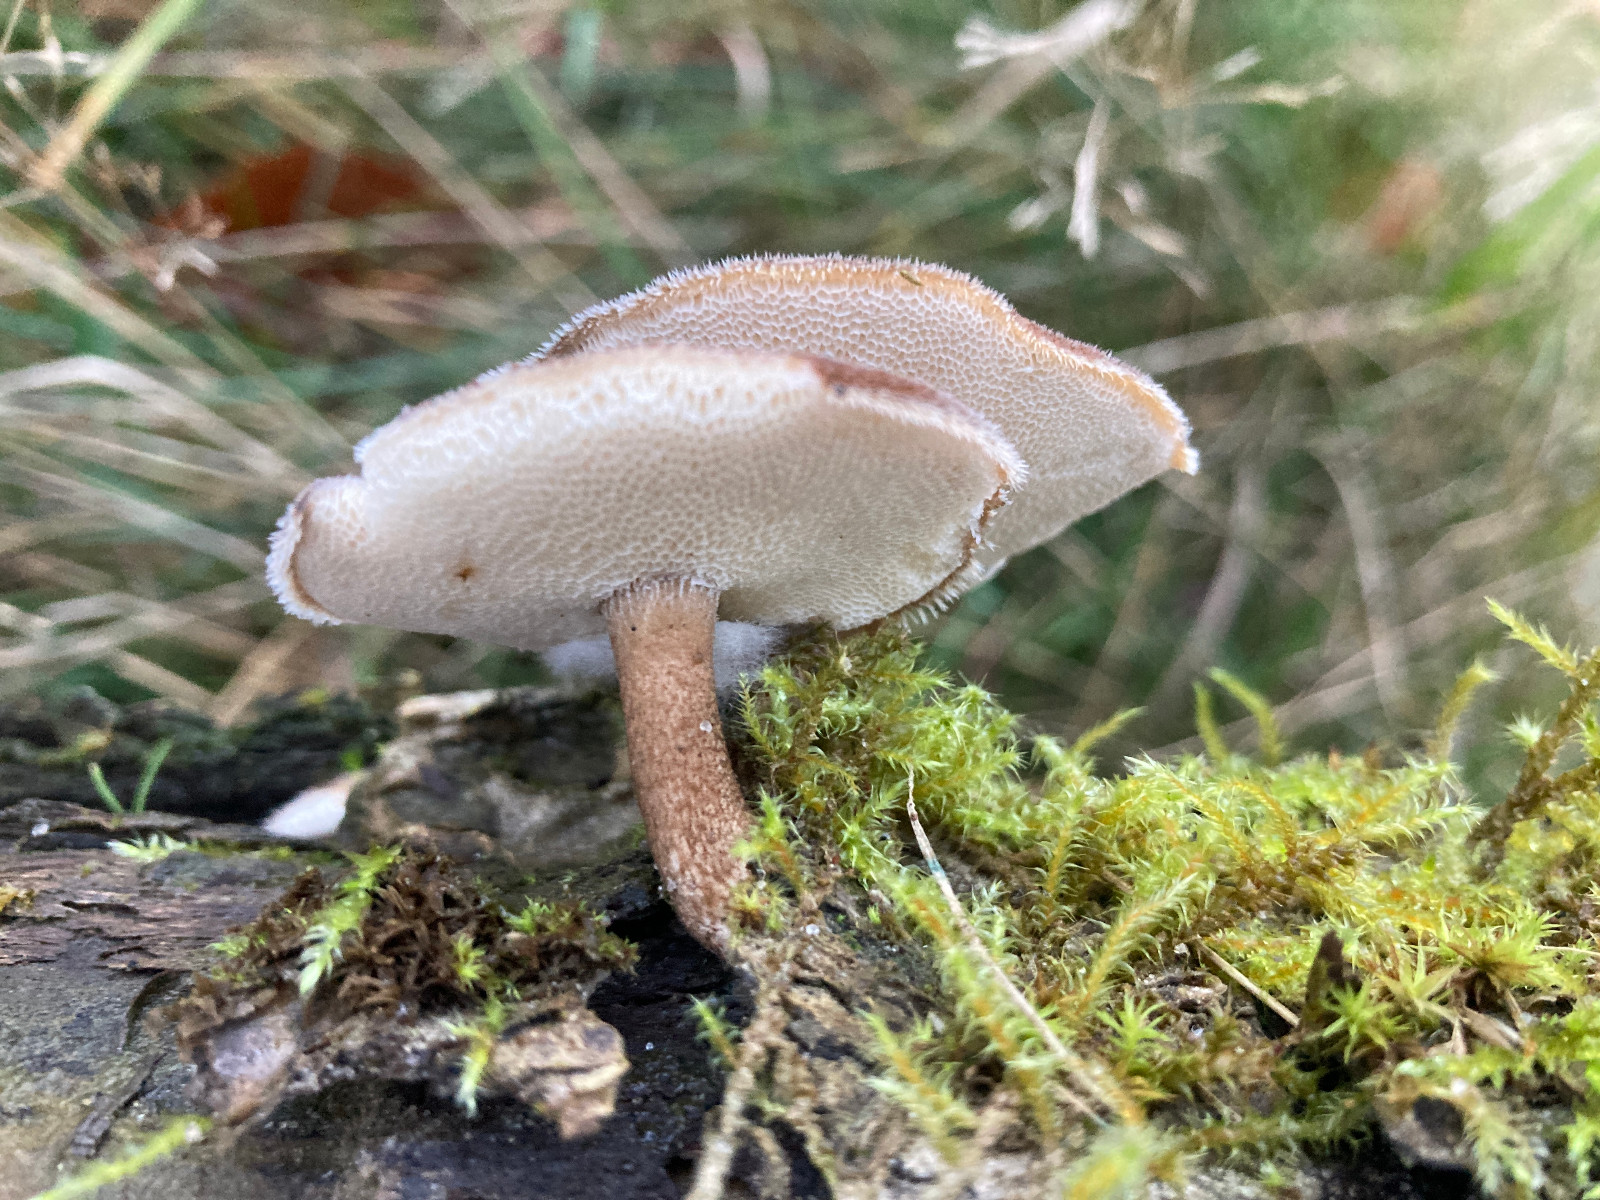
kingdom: Fungi
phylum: Basidiomycota
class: Agaricomycetes
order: Polyporales
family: Polyporaceae
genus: Lentinus
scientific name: Lentinus brumalis
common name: vinter-stilkporesvamp
